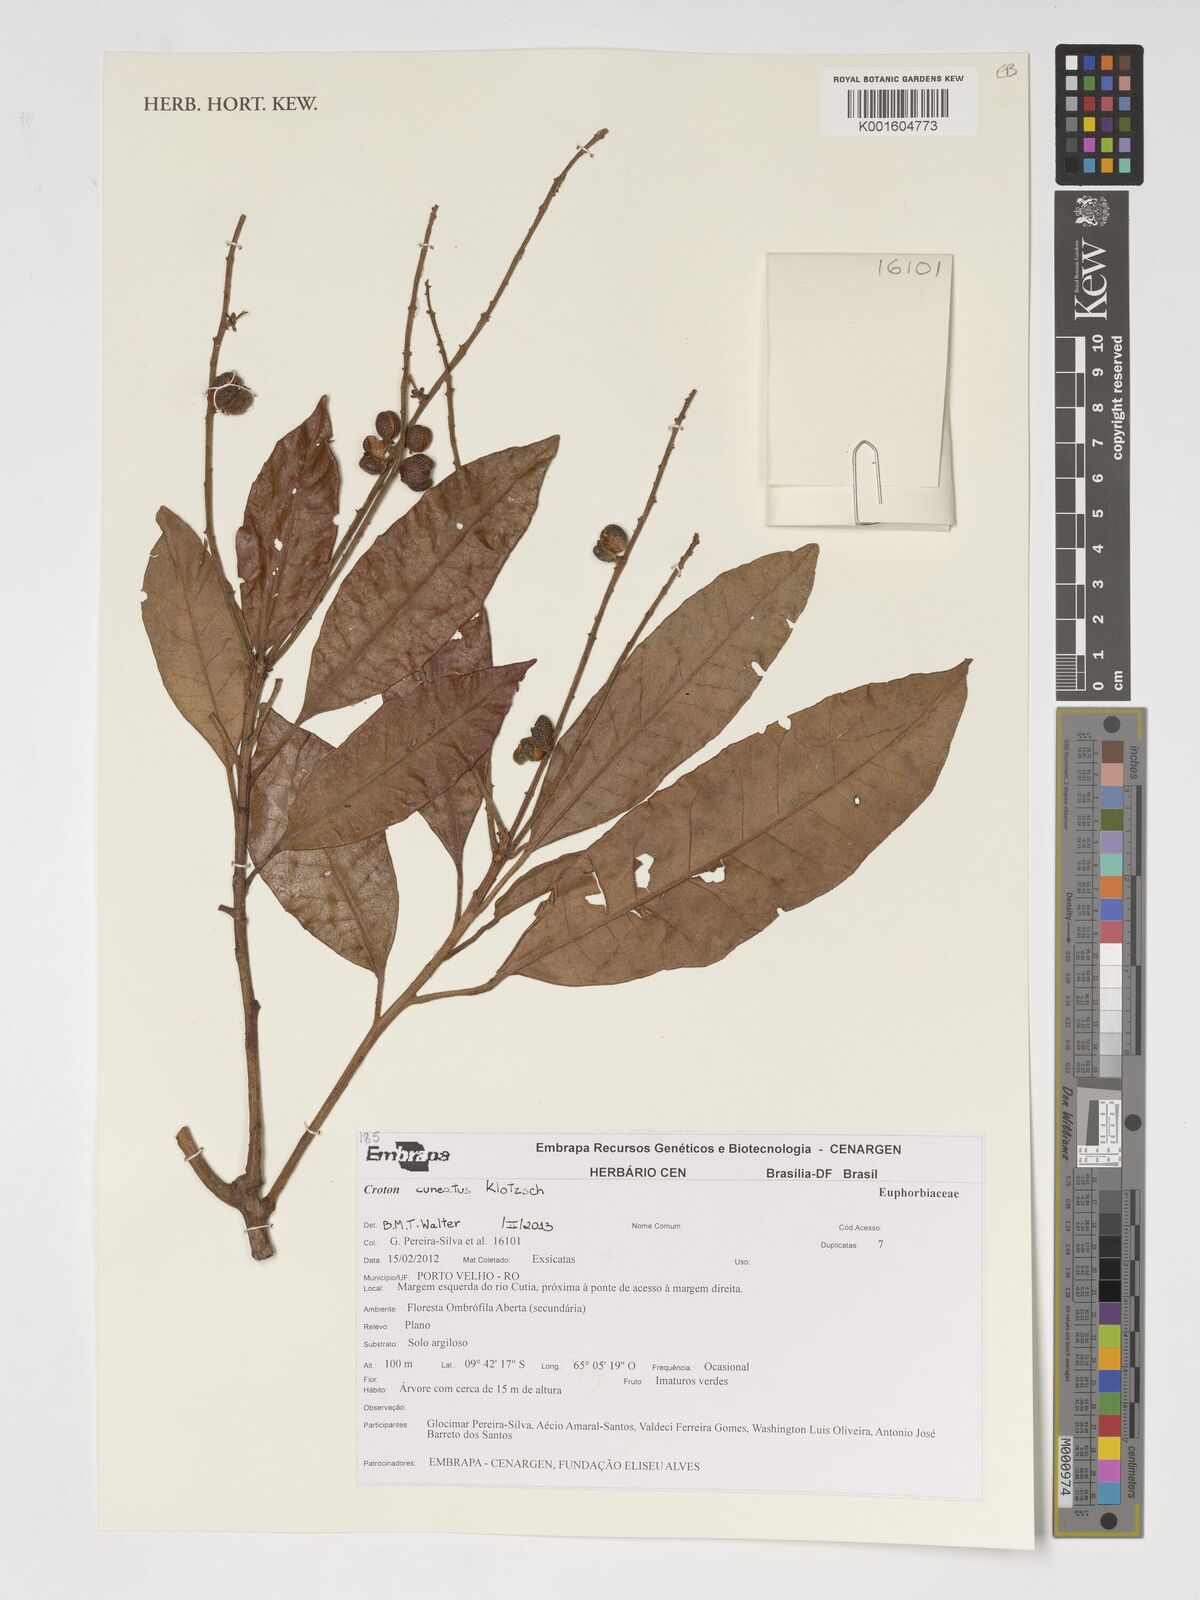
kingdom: Plantae
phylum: Tracheophyta
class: Magnoliopsida
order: Malpighiales
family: Euphorbiaceae
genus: Croton
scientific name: Croton cuneatus
